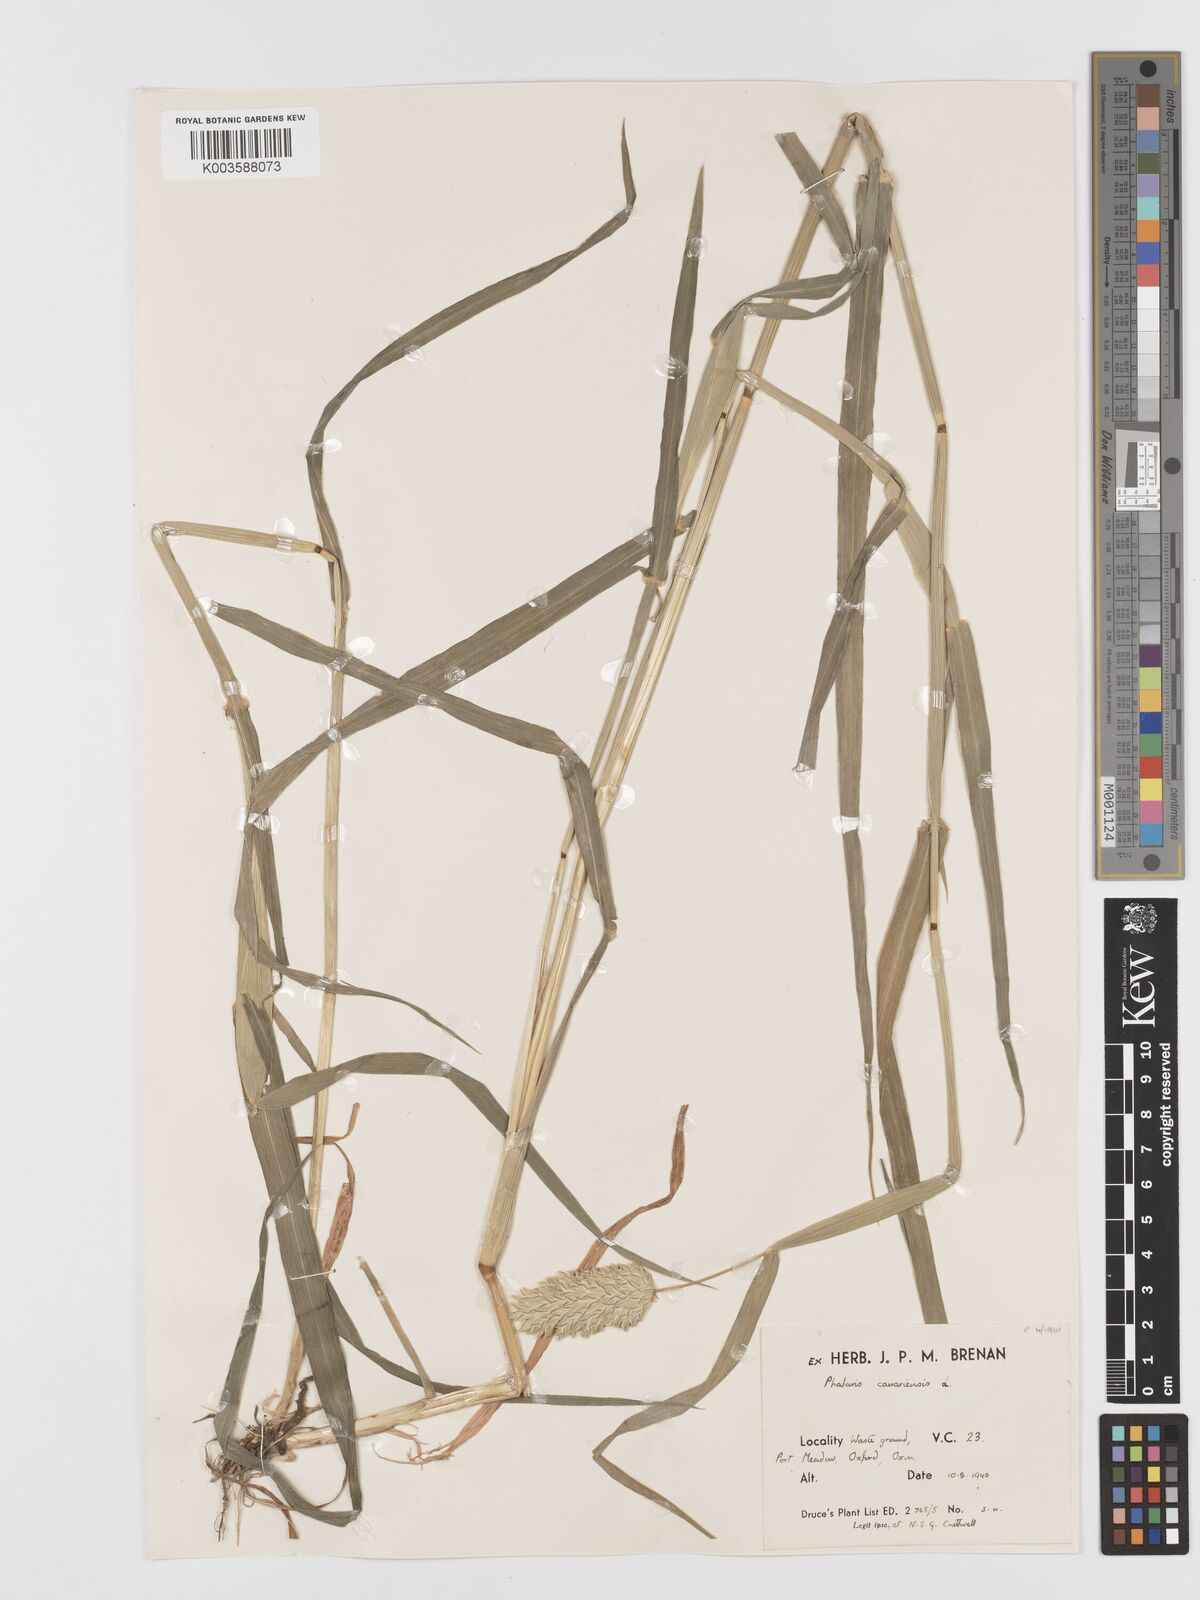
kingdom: Plantae
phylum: Tracheophyta
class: Liliopsida
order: Poales
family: Poaceae
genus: Phalaris
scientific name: Phalaris canariensis
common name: Annual canarygrass
